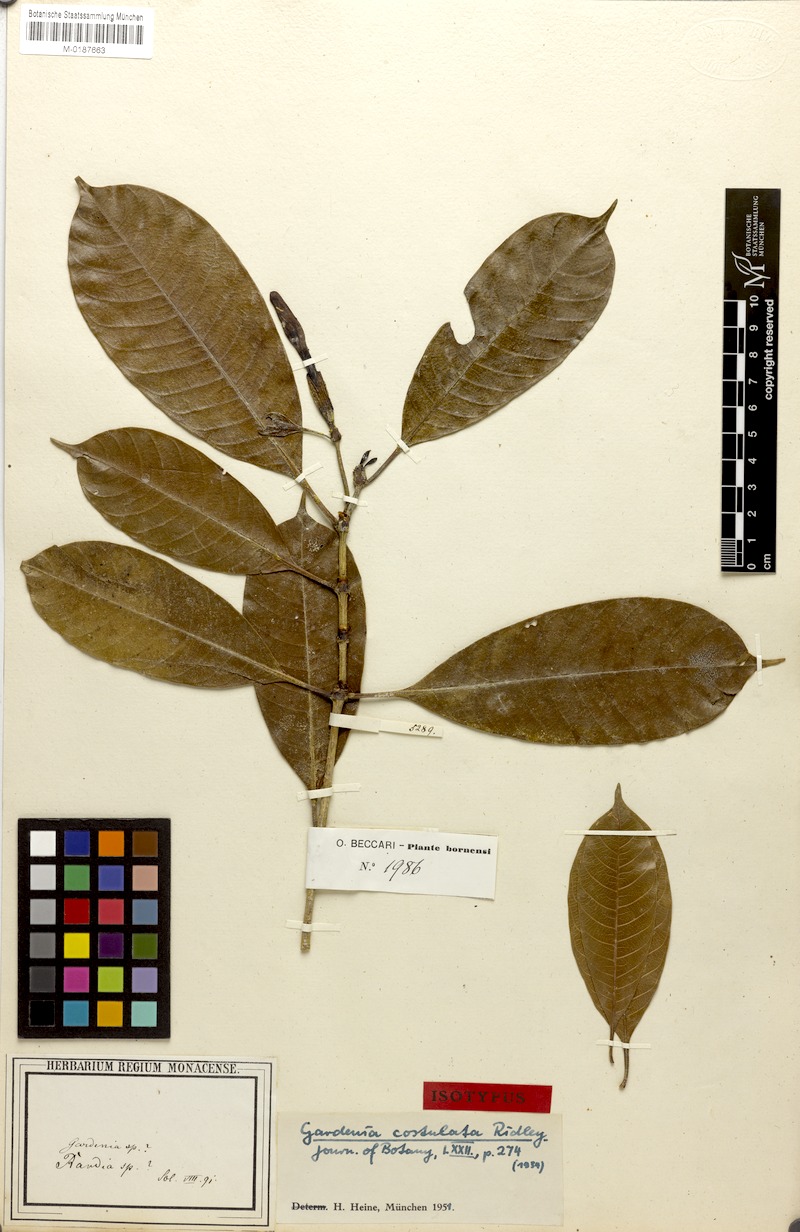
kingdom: Plantae
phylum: Tracheophyta
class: Magnoliopsida
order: Gentianales
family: Rubiaceae
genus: Gardenia
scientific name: Gardenia costulata
